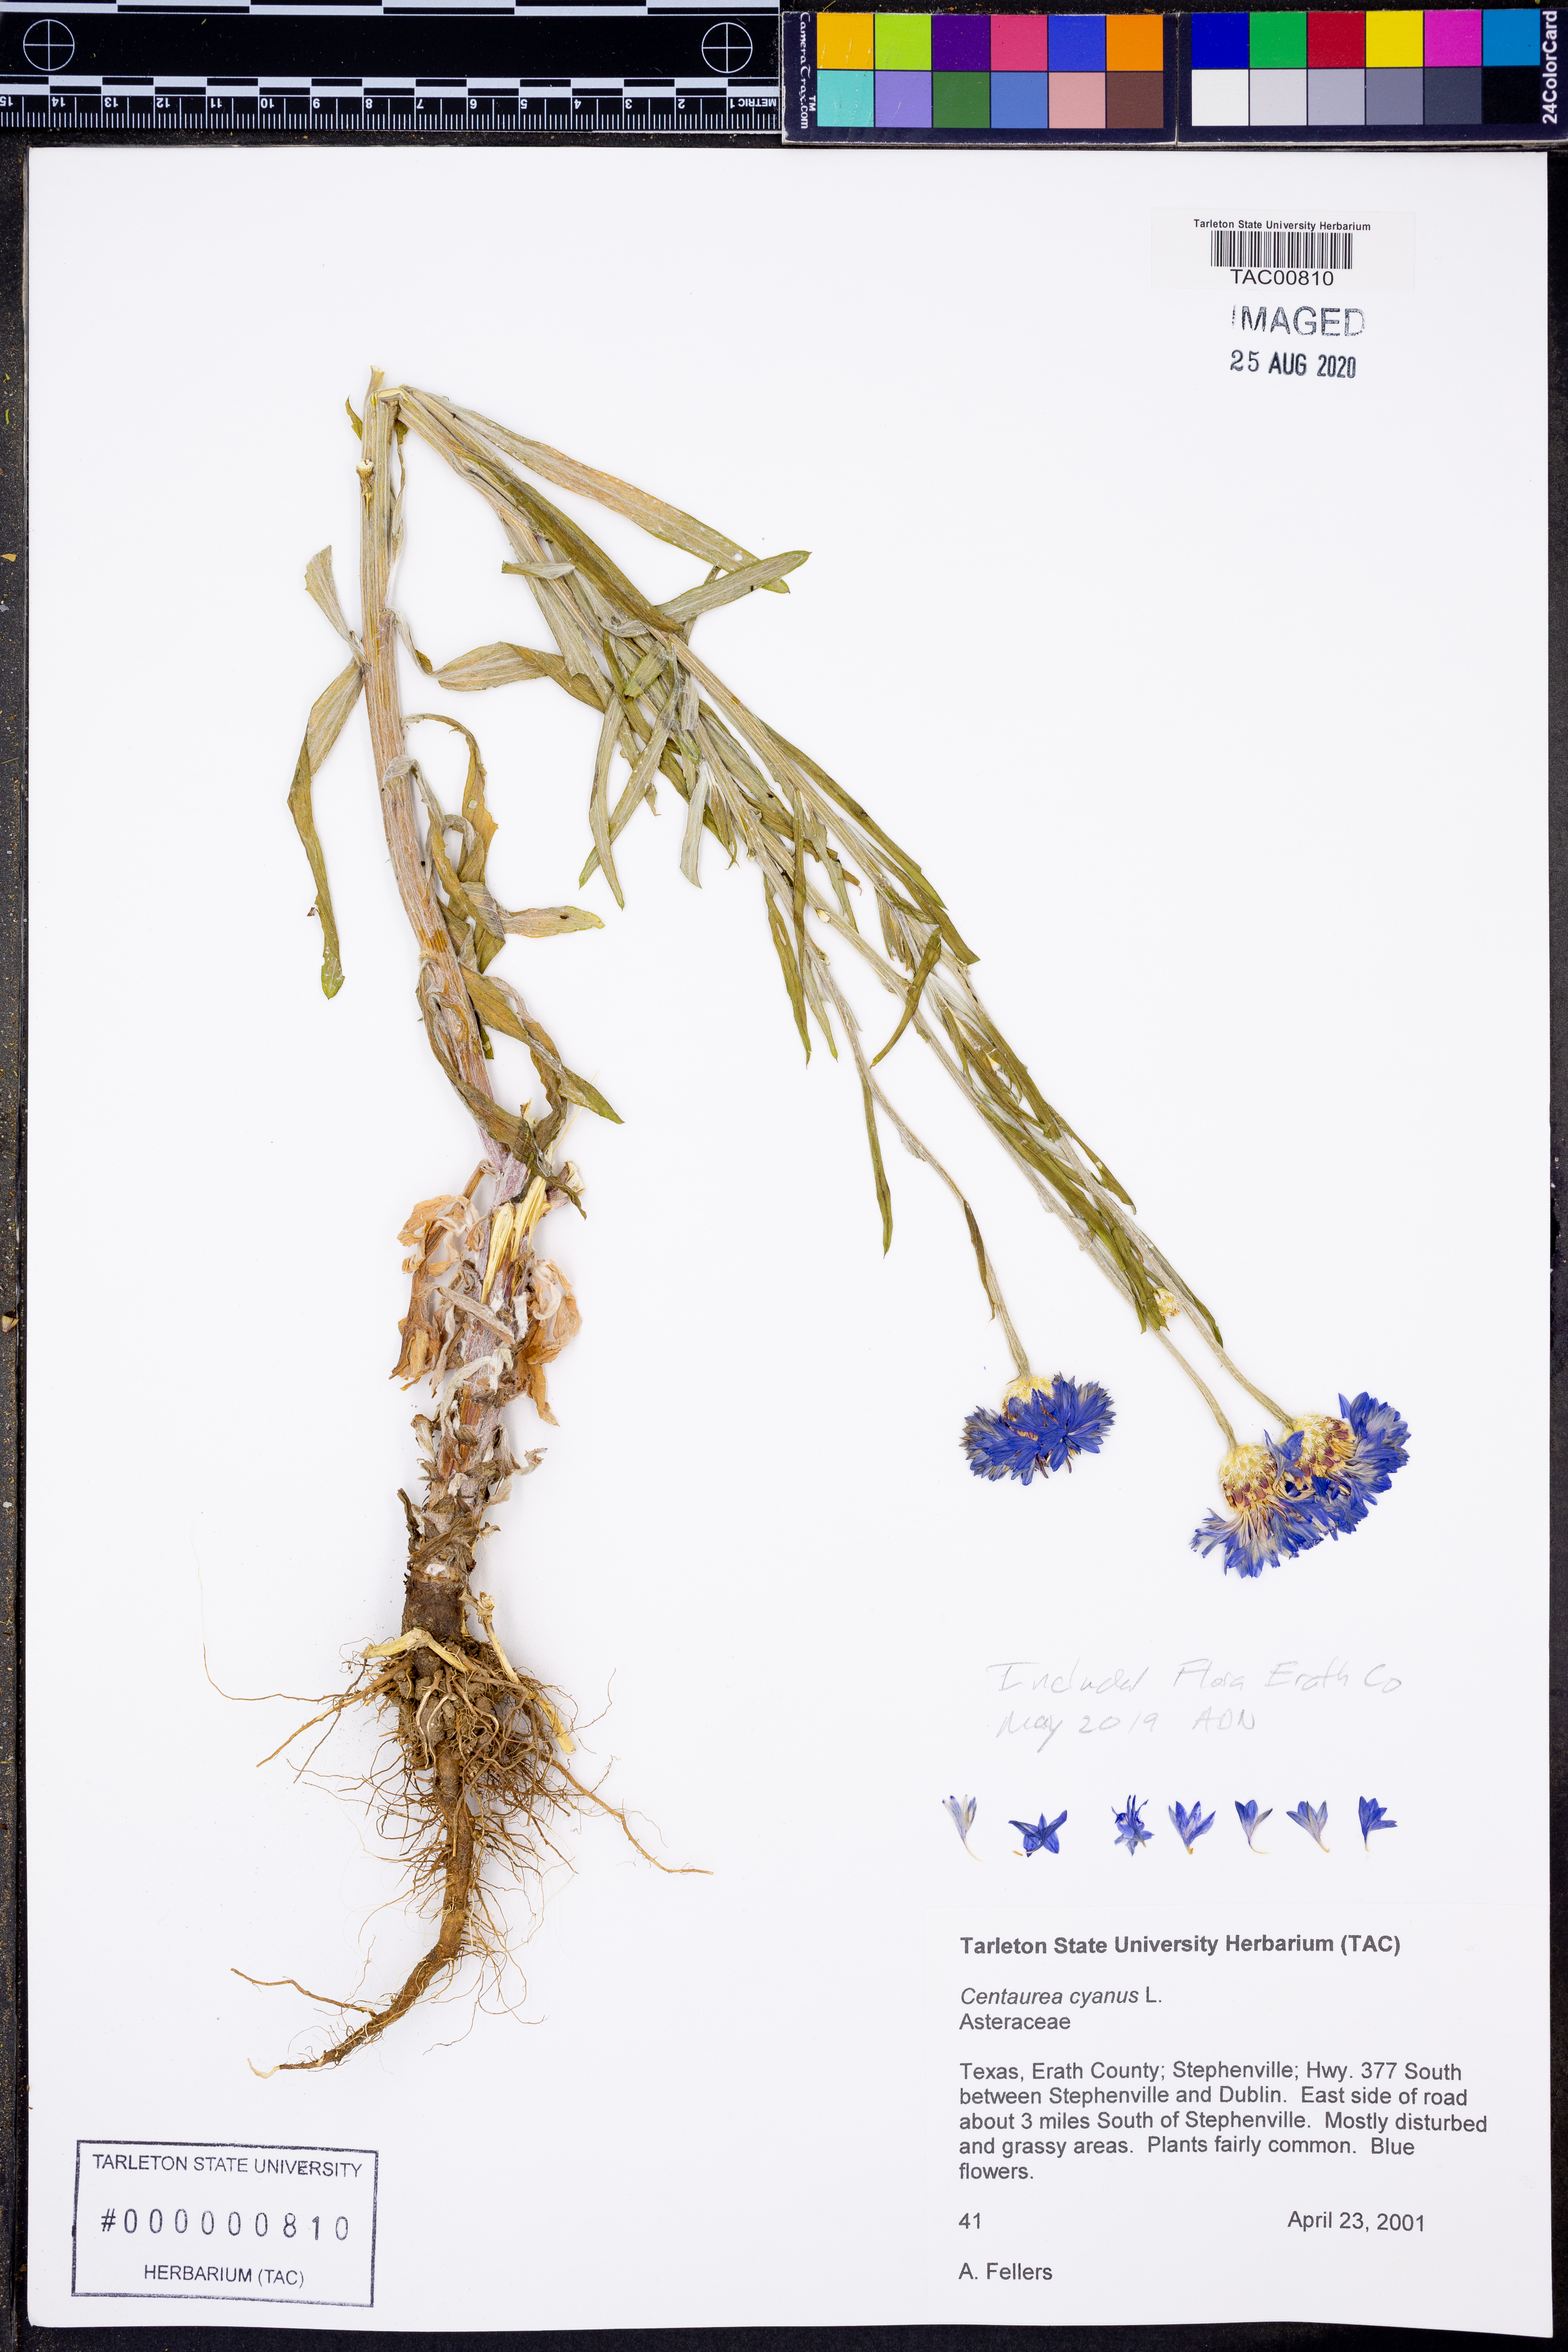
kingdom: Plantae
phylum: Tracheophyta
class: Magnoliopsida
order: Asterales
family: Asteraceae
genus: Centaurea
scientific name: Centaurea cyanus
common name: Cornflower
